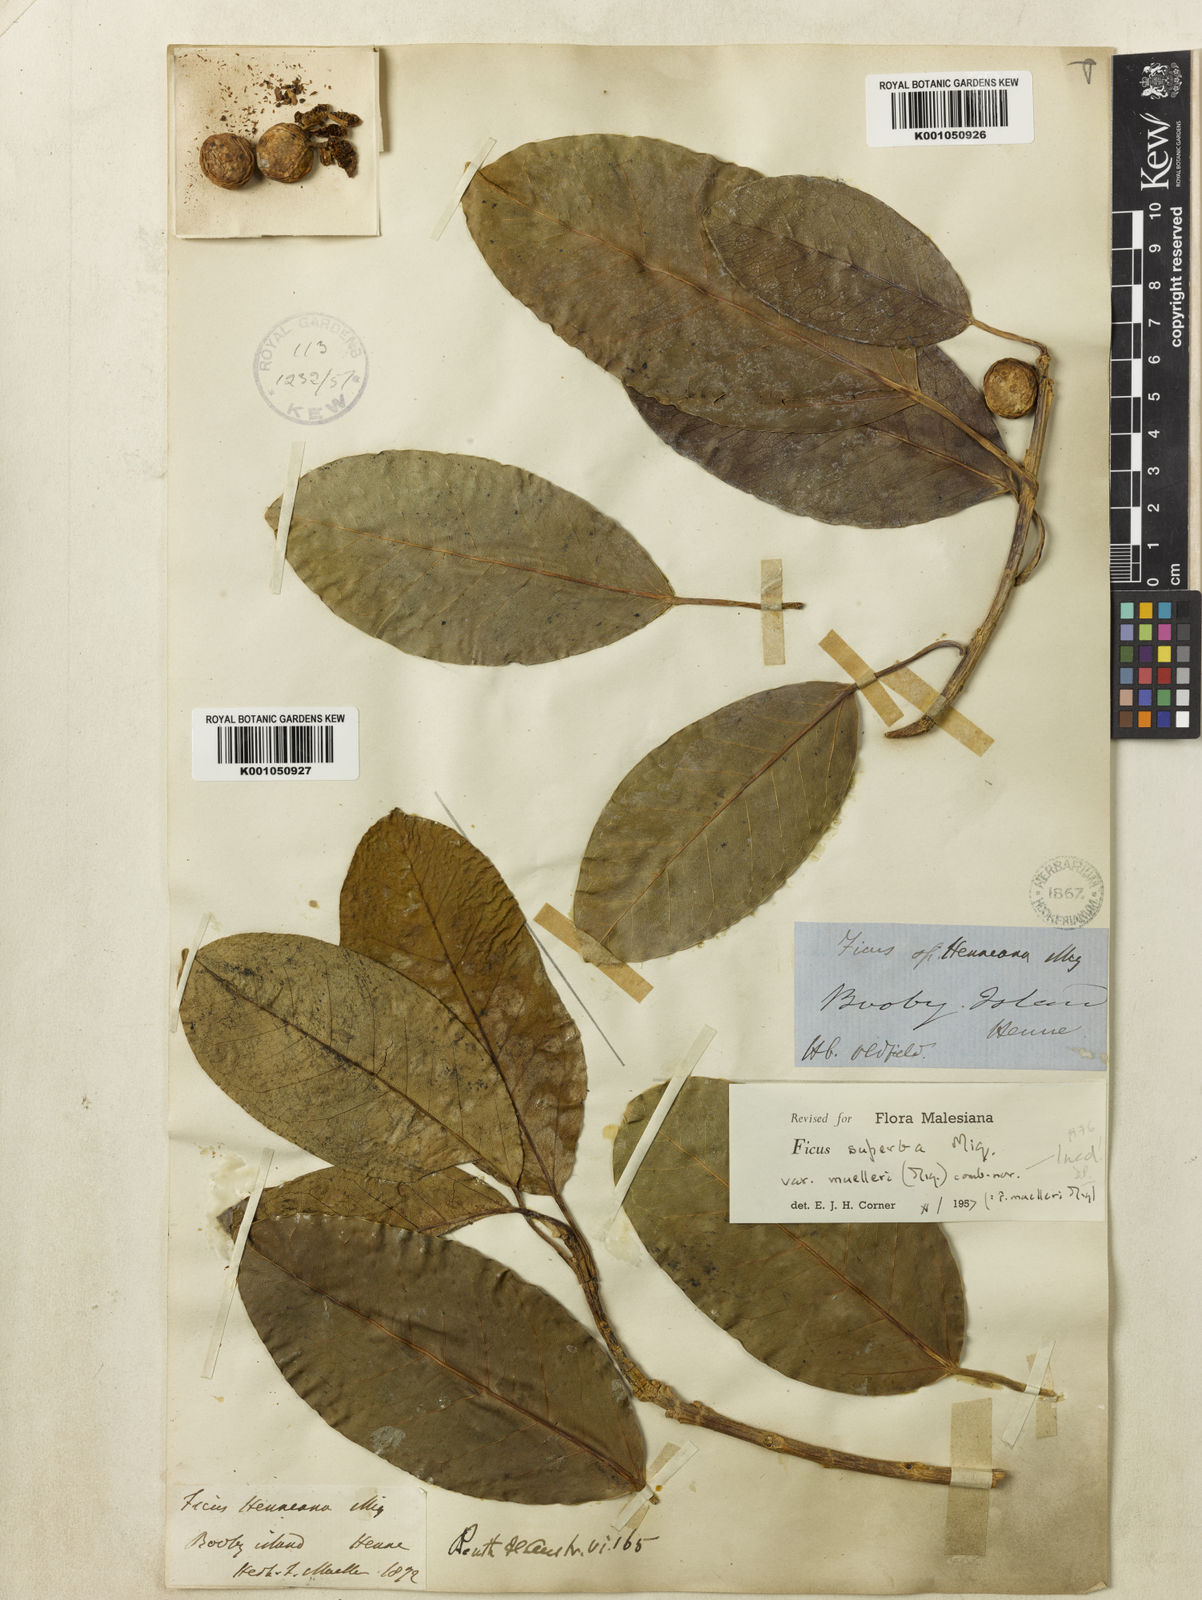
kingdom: Plantae
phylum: Tracheophyta
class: Magnoliopsida
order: Rosales
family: Moraceae
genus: Ficus
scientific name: Ficus henneana
